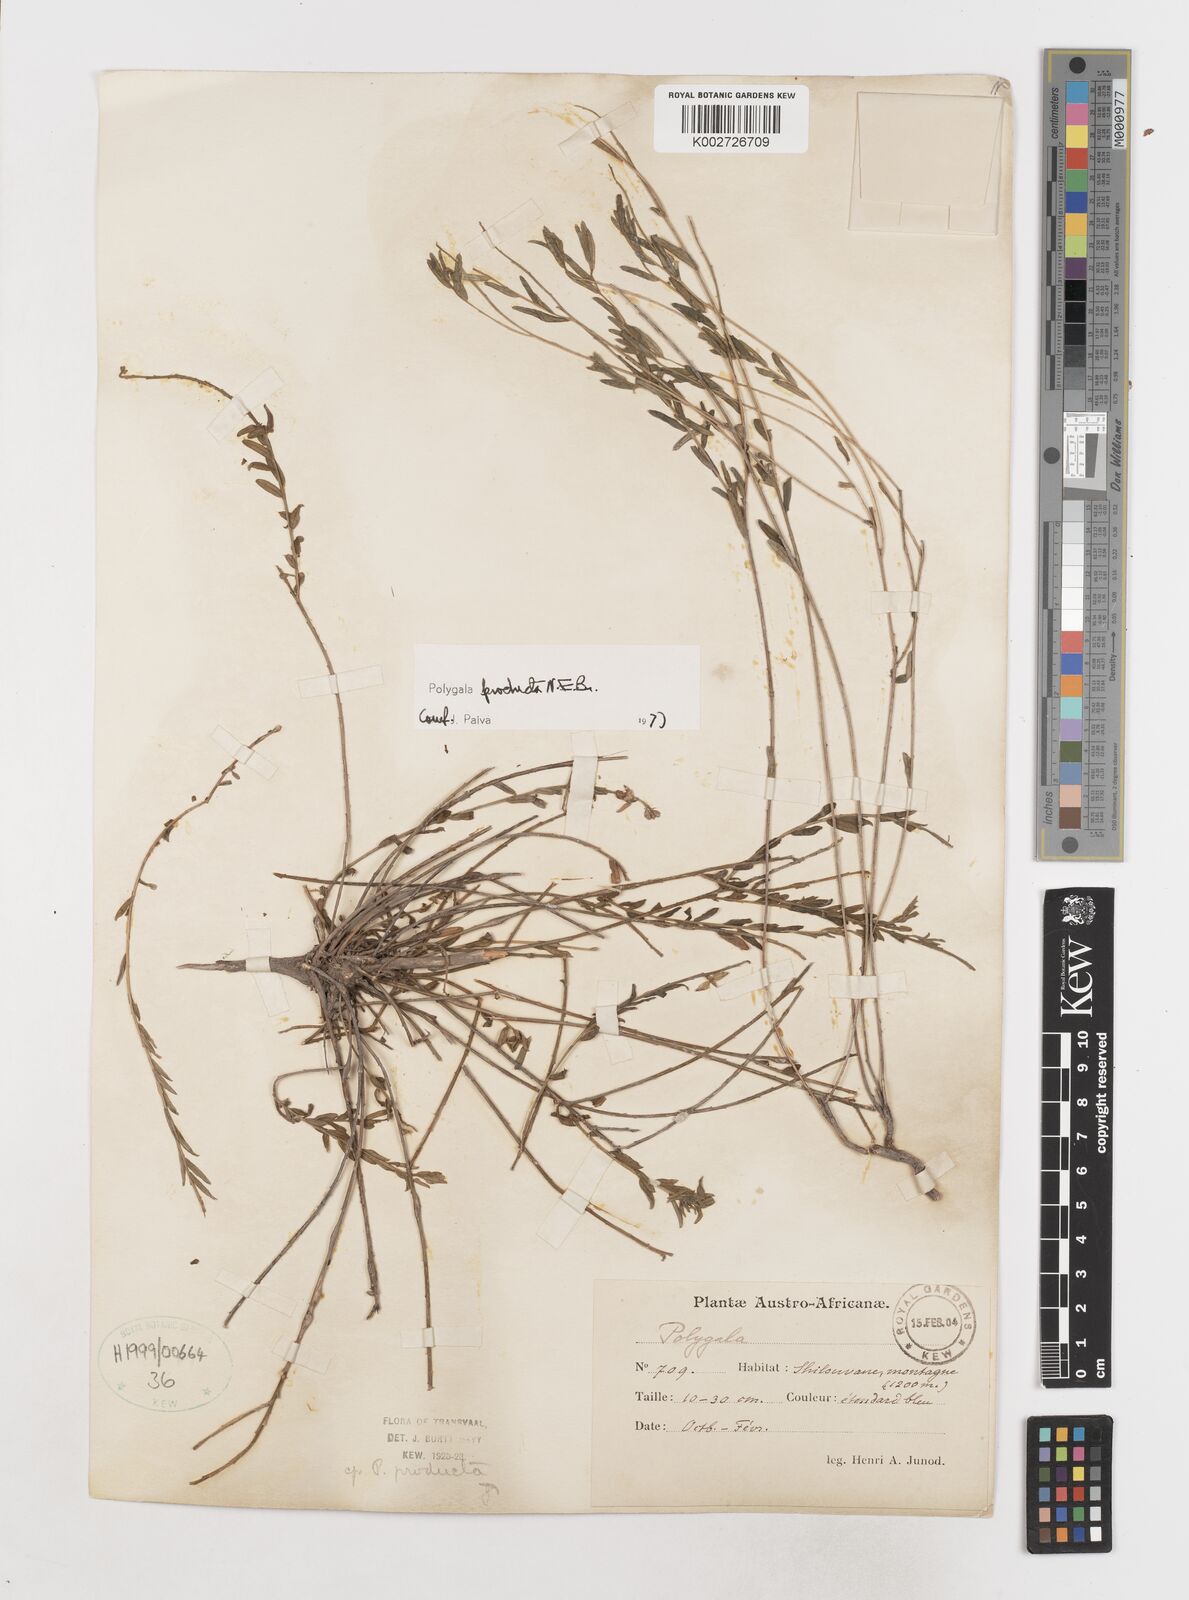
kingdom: Plantae
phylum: Tracheophyta
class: Magnoliopsida
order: Fabales
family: Polygalaceae
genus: Polygala
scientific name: Polygala producta
